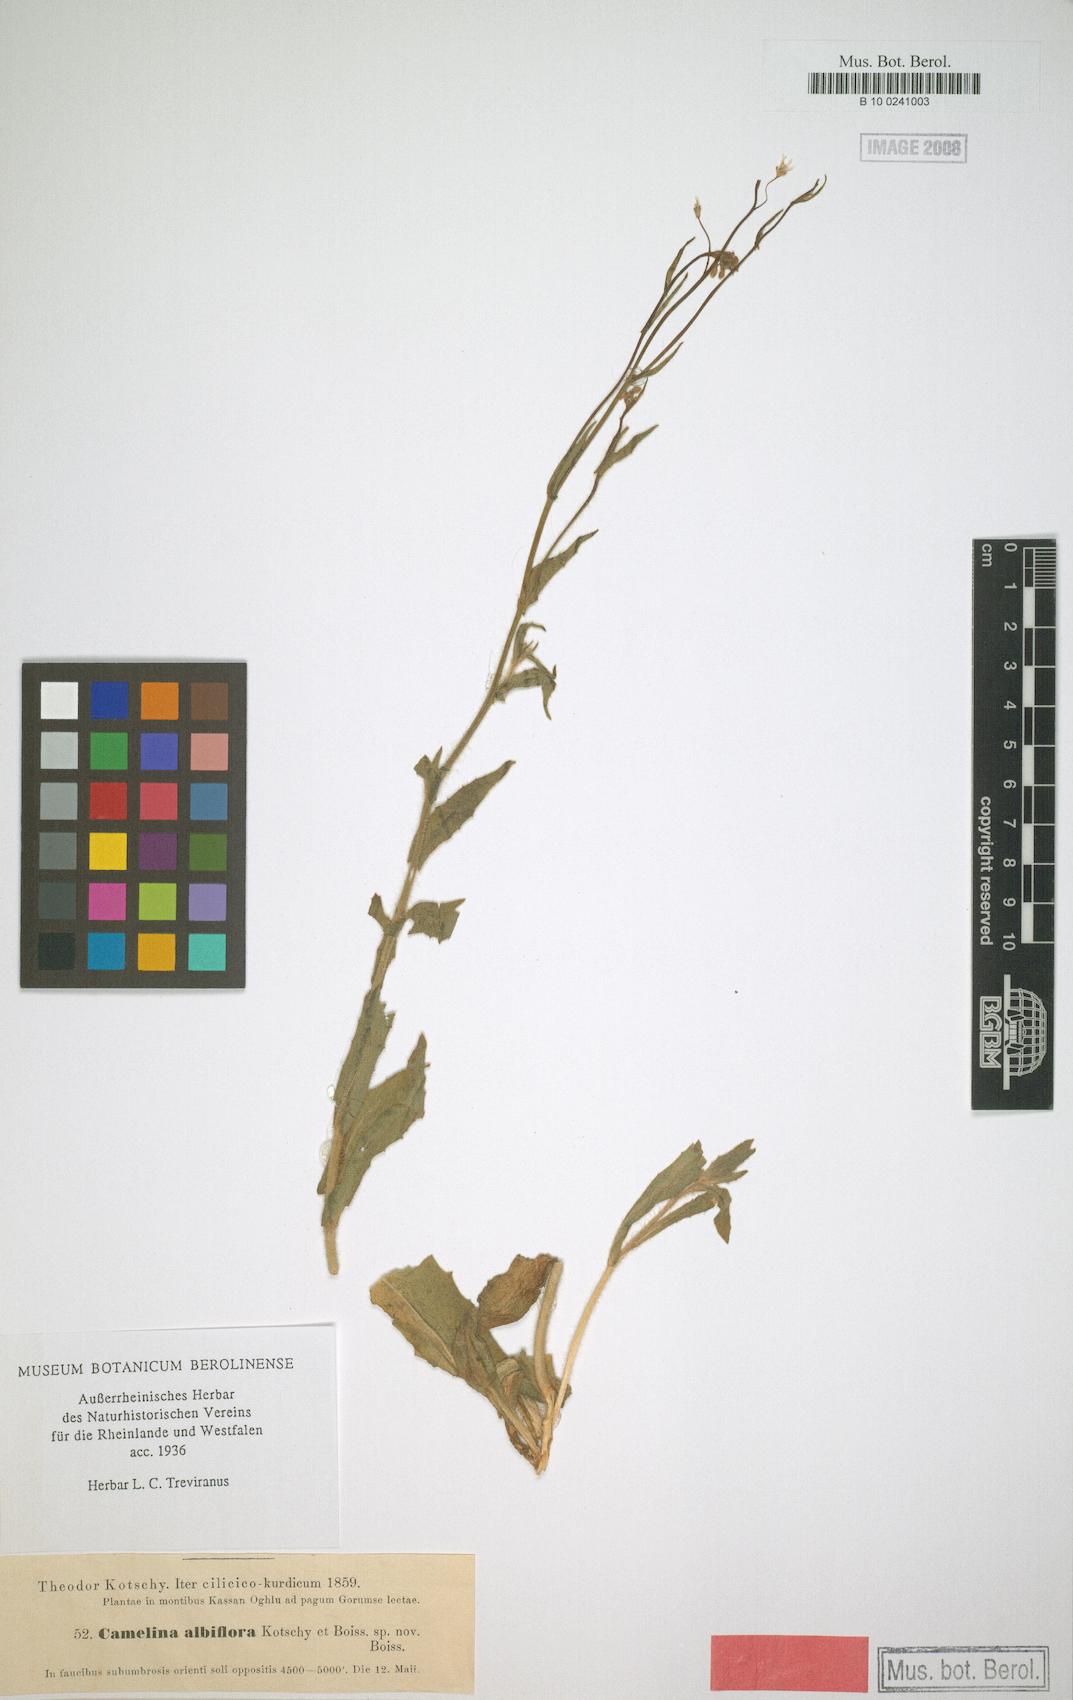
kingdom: Plantae
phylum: Tracheophyta
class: Magnoliopsida
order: Brassicales
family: Brassicaceae
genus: Camelina
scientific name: Camelina rumelica
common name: Graceful false flax
